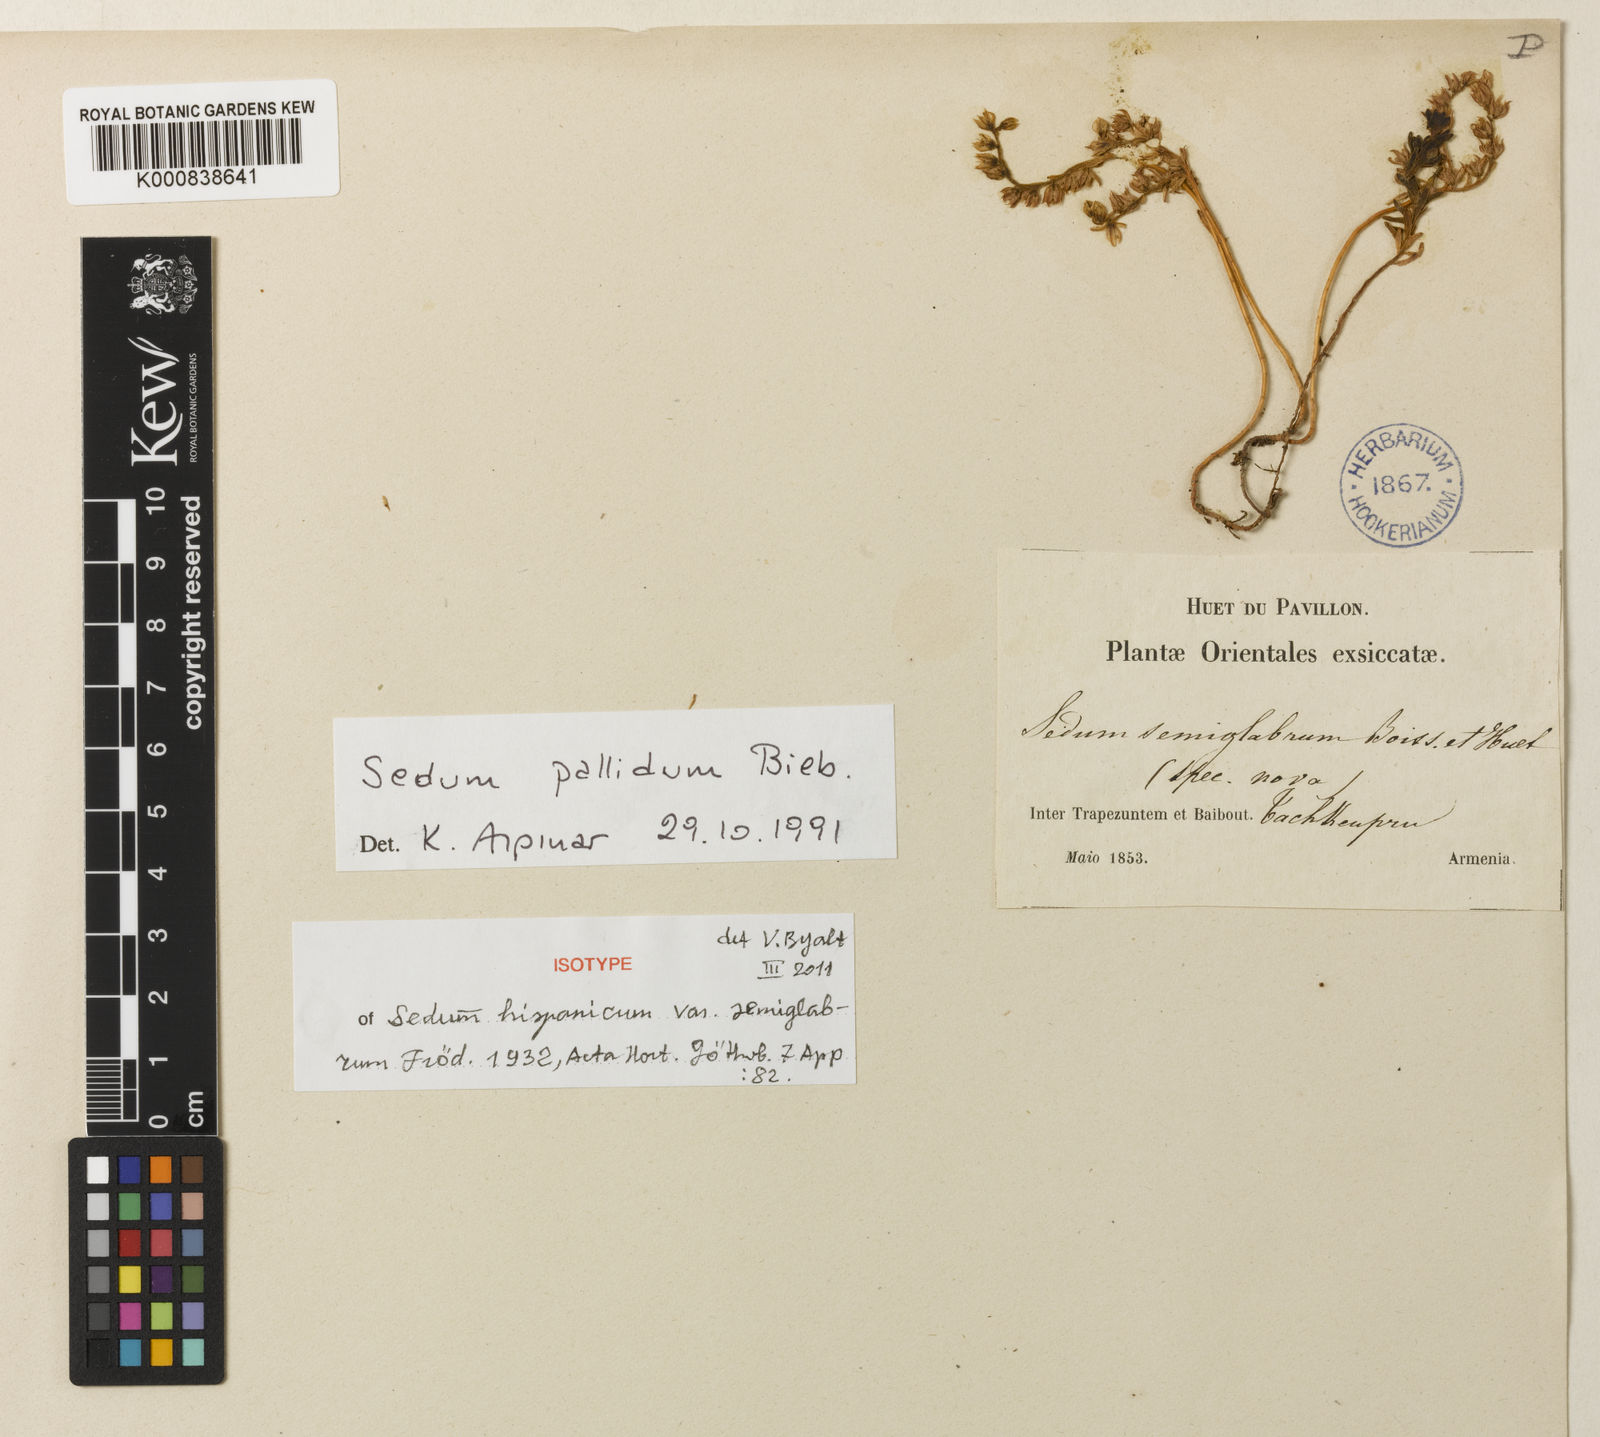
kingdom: Plantae
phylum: Tracheophyta
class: Magnoliopsida
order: Saxifragales
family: Crassulaceae
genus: Sedum
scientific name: Sedum hispanicum
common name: Spanish stonecrop
